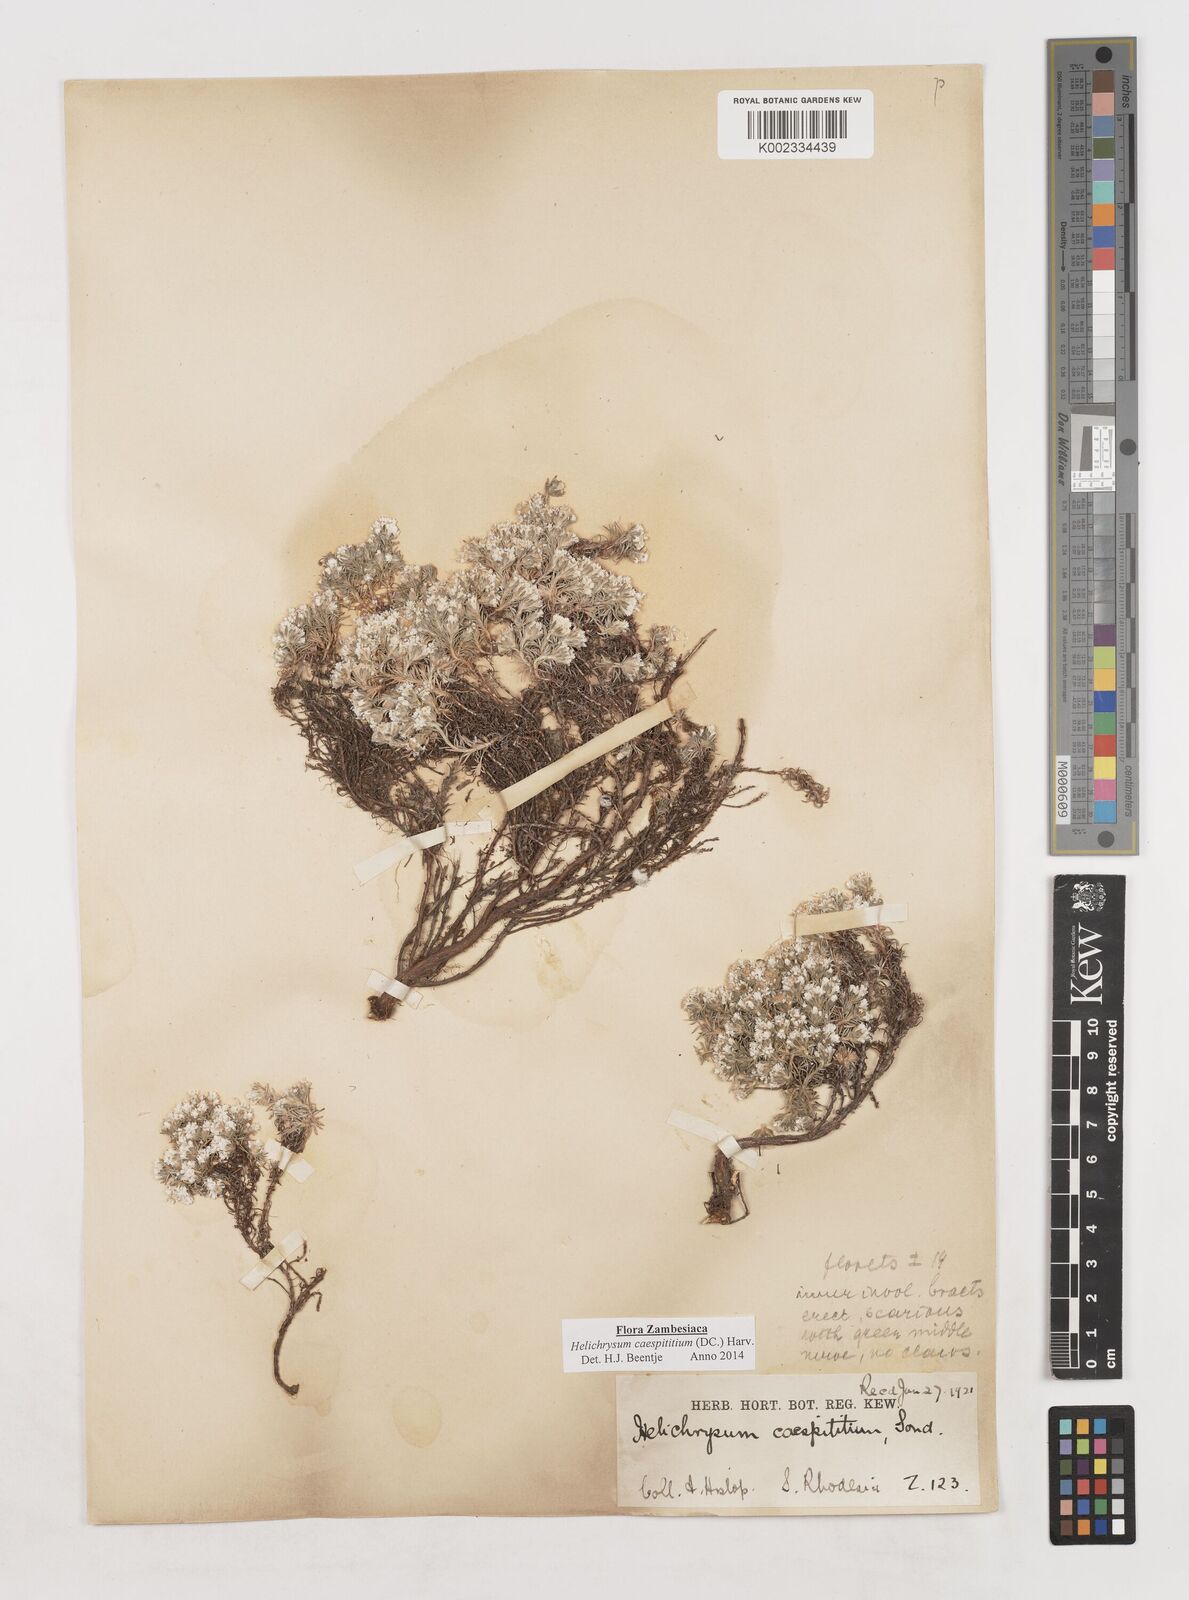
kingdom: Plantae
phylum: Tracheophyta
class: Magnoliopsida
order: Asterales
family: Asteraceae
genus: Helichrysum
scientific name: Helichrysum caespititium
